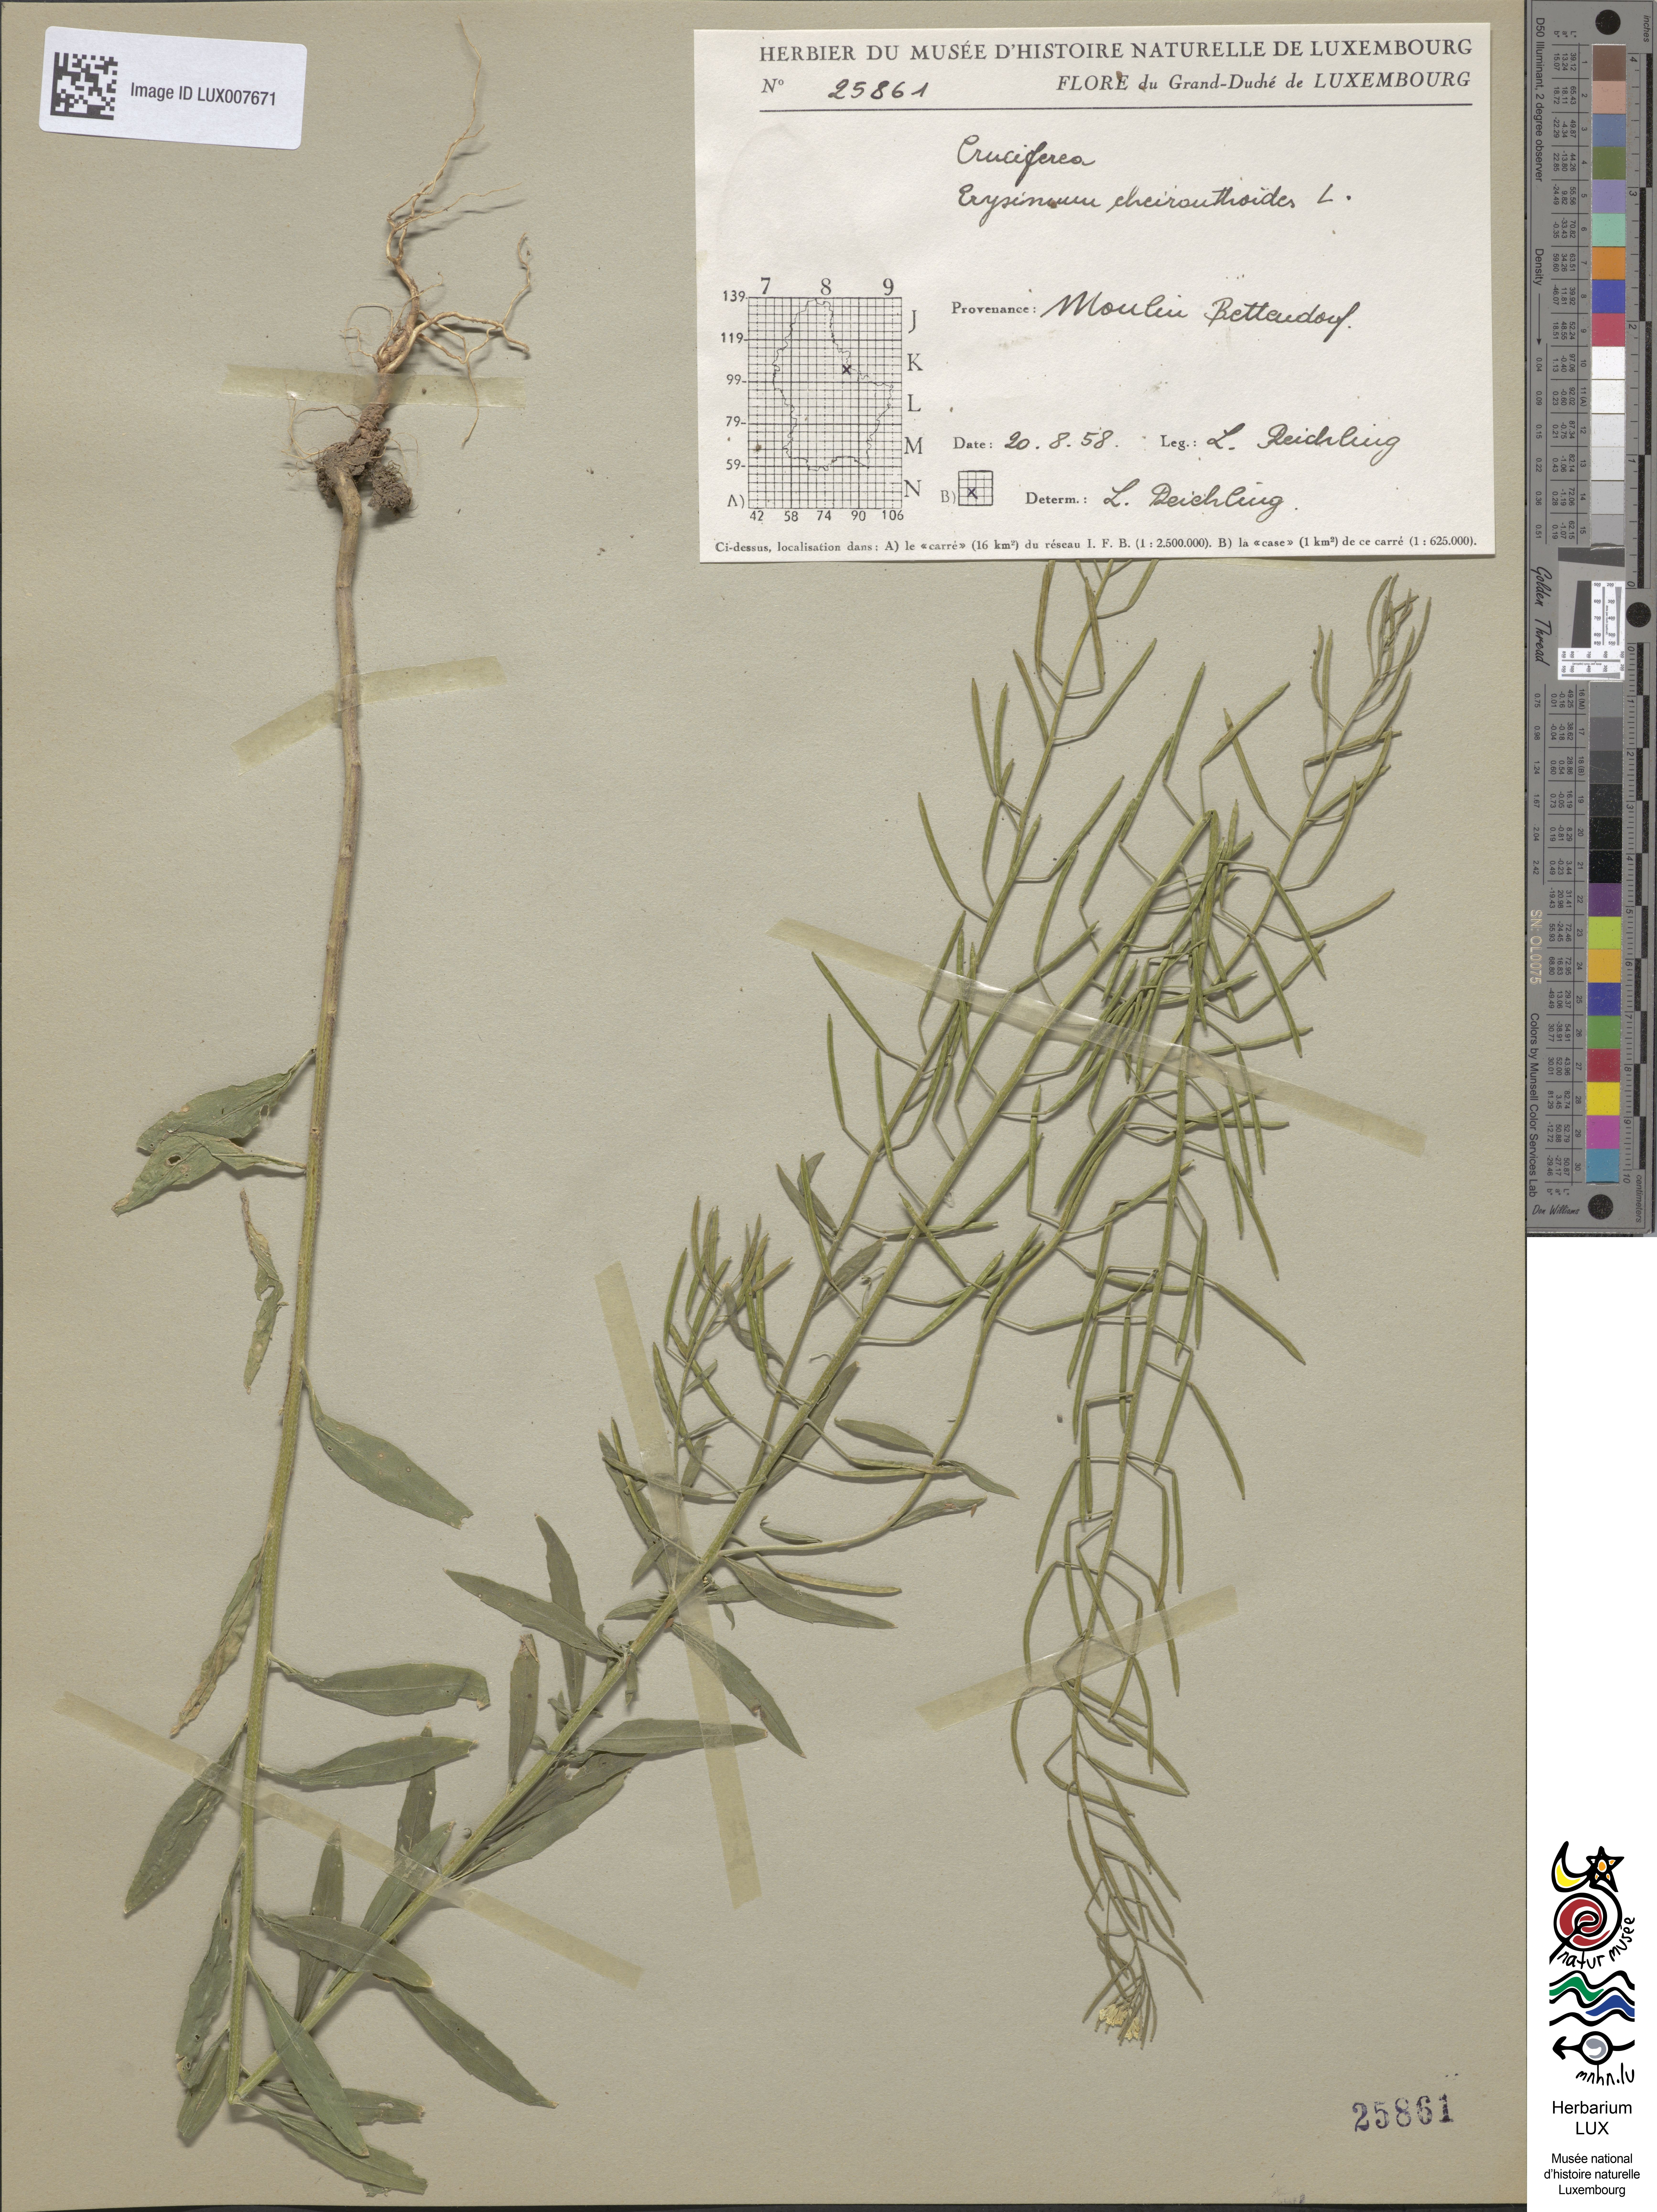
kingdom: Plantae
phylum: Tracheophyta
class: Magnoliopsida
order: Brassicales
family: Brassicaceae
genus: Erysimum
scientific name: Erysimum cheiranthoides
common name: Treacle mustard
